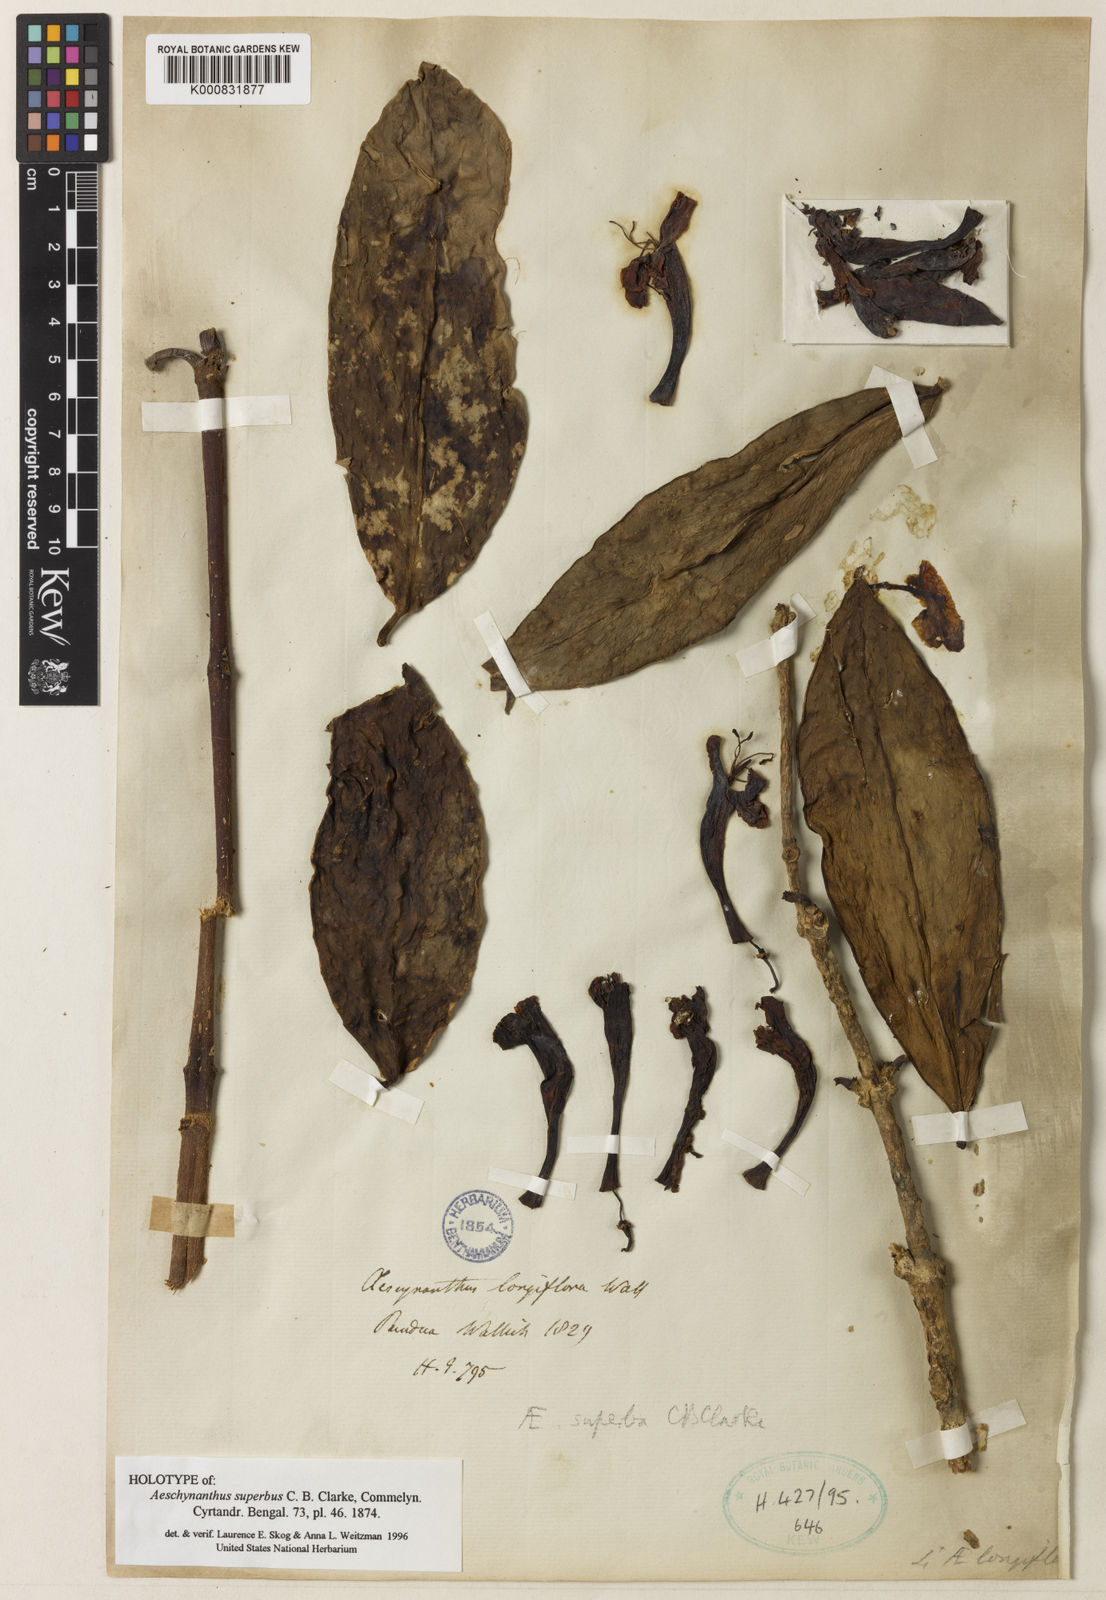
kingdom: Plantae
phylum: Tracheophyta
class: Magnoliopsida
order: Lamiales
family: Gesneriaceae
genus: Aeschynanthus
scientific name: Aeschynanthus superbus
